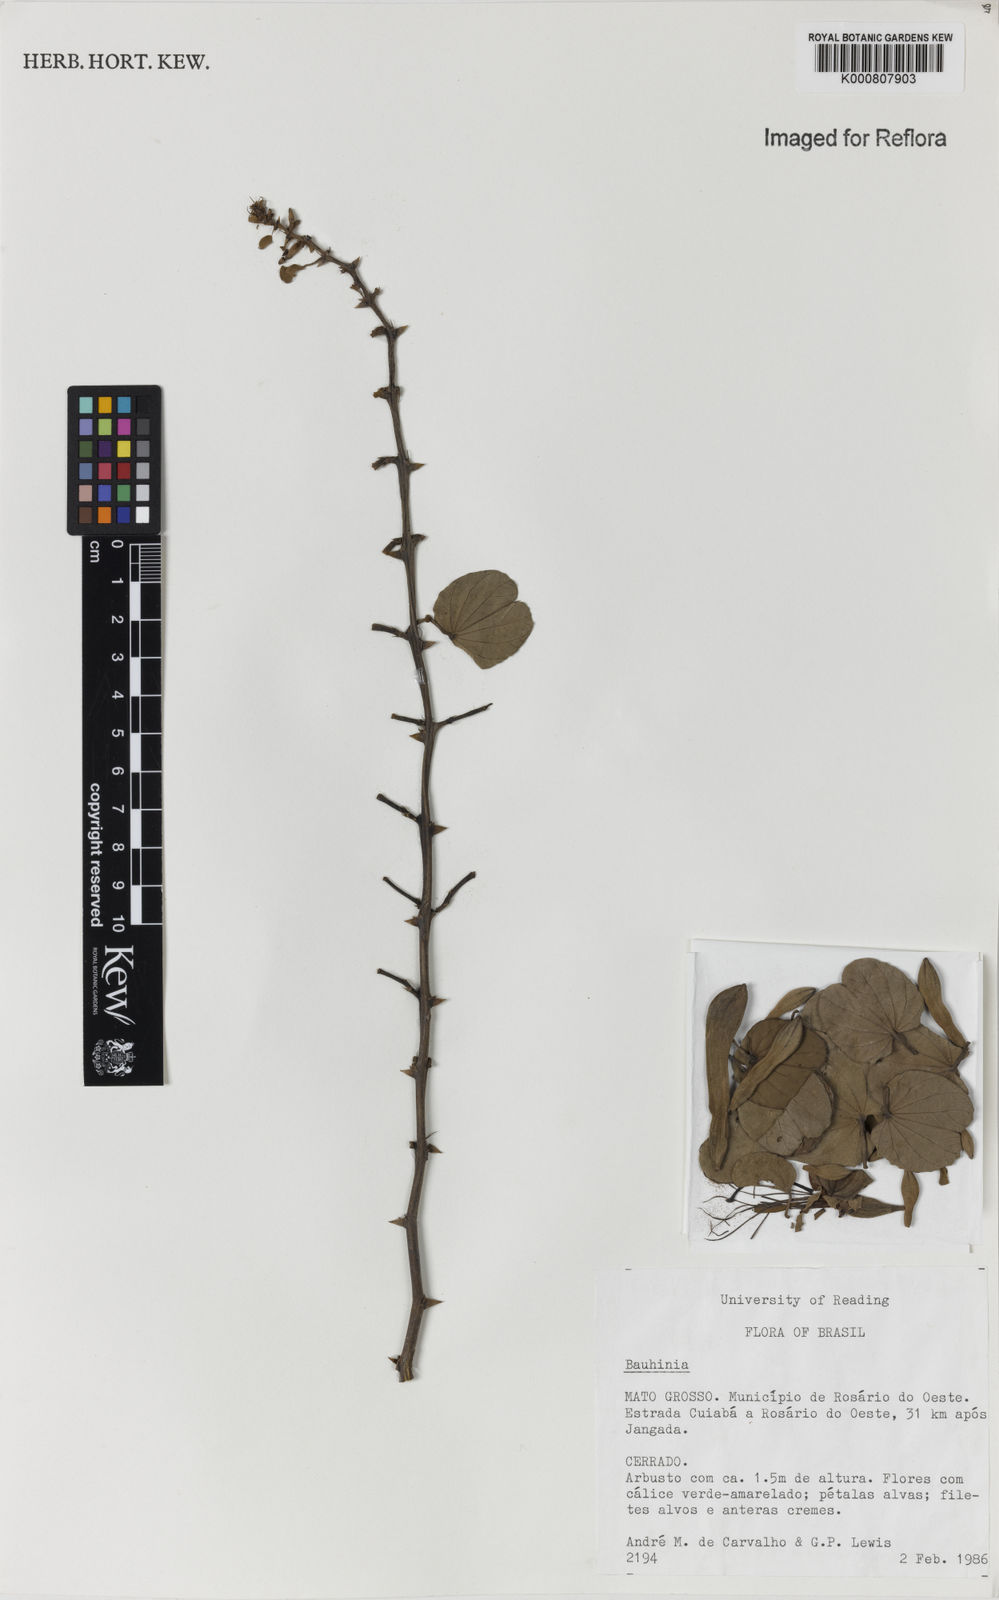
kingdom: Plantae
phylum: Tracheophyta
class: Magnoliopsida
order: Fabales
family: Fabaceae
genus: Bauhinia
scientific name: Bauhinia
